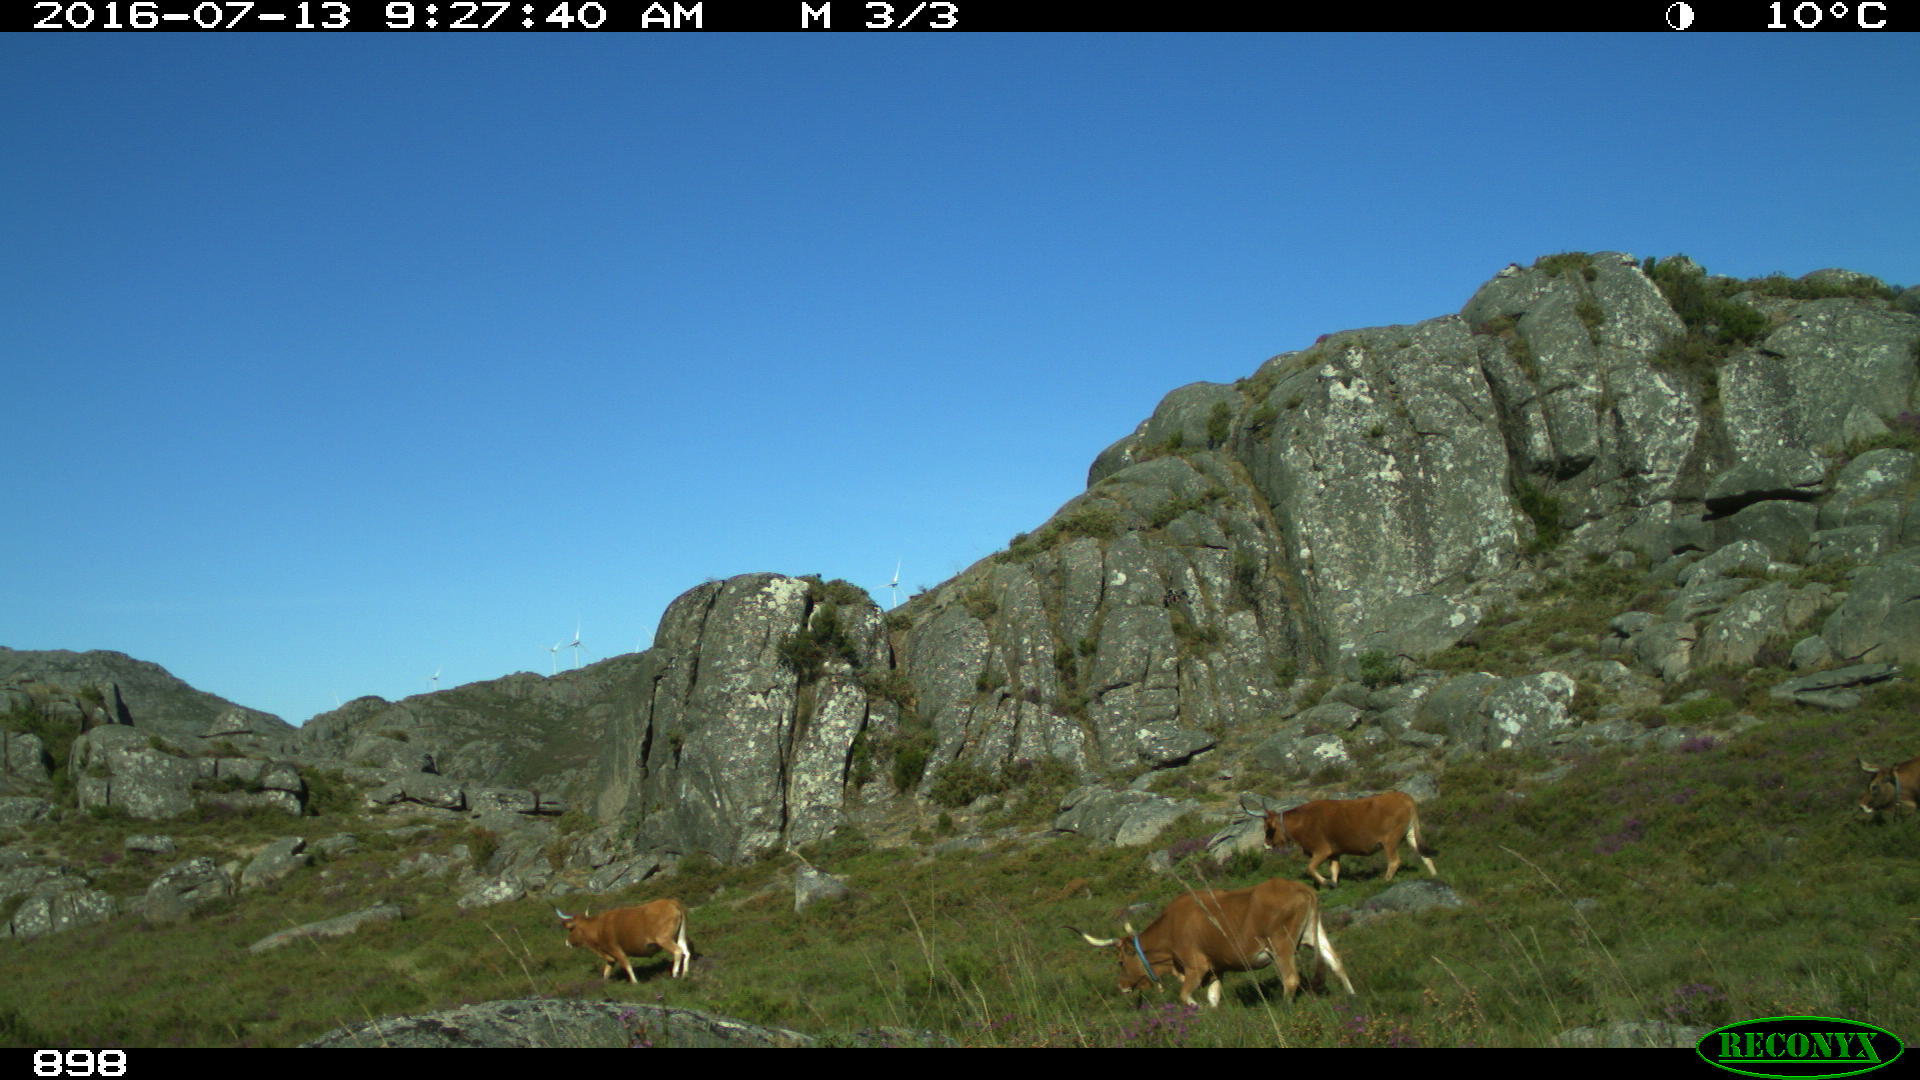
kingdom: Animalia
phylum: Chordata
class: Mammalia
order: Artiodactyla
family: Bovidae
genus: Bos
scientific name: Bos taurus
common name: Domesticated cattle
